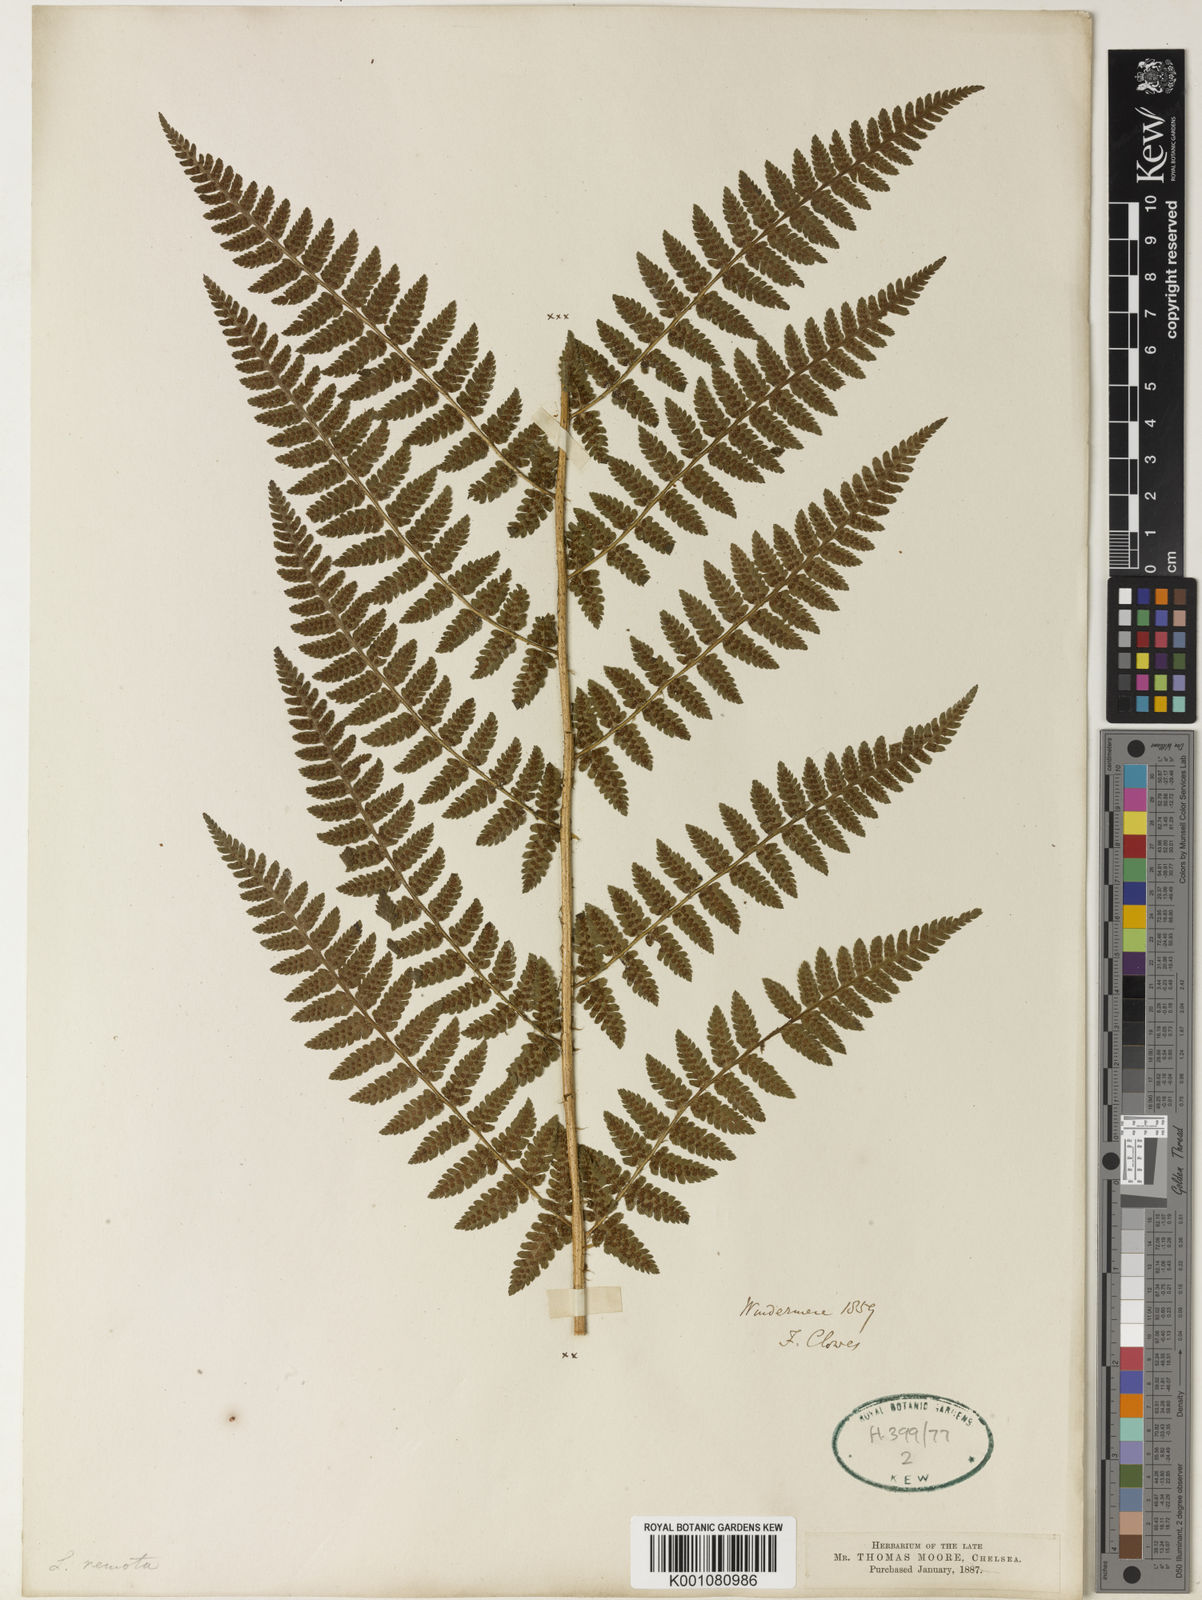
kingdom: Plantae
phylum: Tracheophyta
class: Polypodiopsida
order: Polypodiales
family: Dryopteridaceae
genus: Dryopteris
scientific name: Dryopteris filix-mas
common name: Male fern
